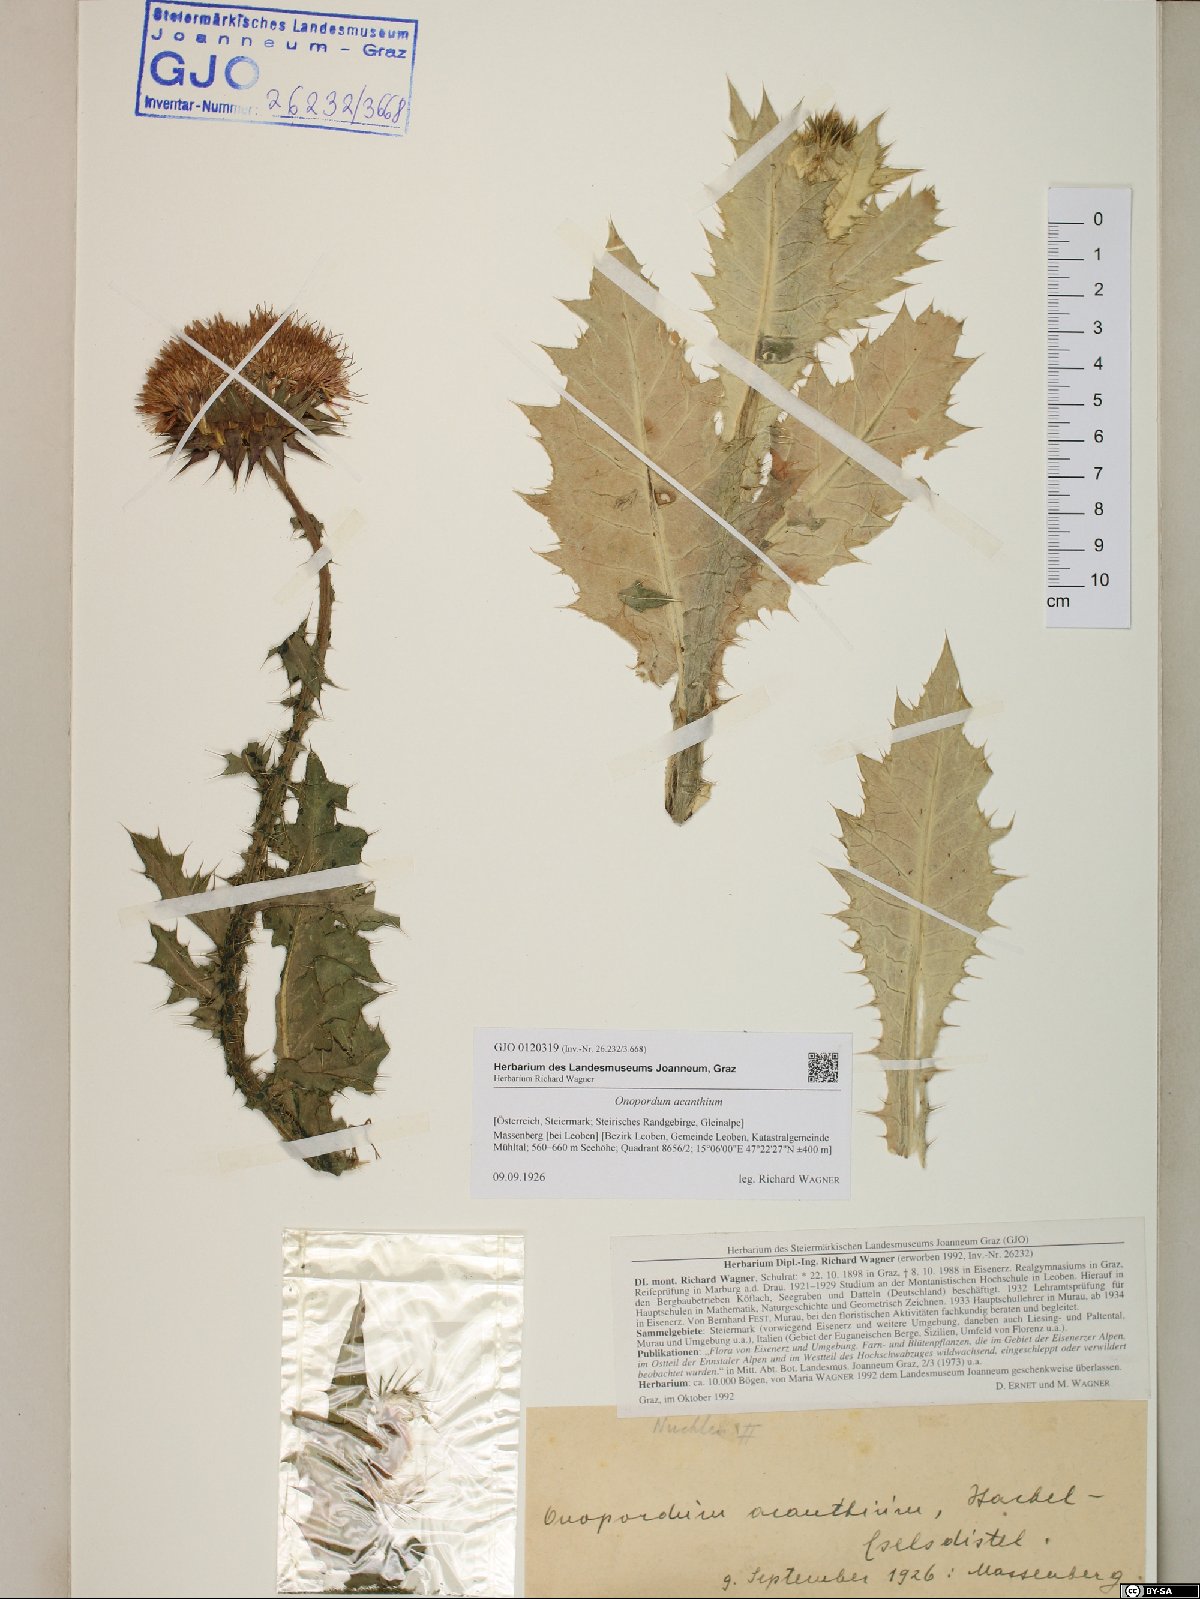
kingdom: Plantae
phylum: Tracheophyta
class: Magnoliopsida
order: Asterales
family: Asteraceae
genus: Onopordum
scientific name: Onopordum acanthium
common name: Scotch thistle
